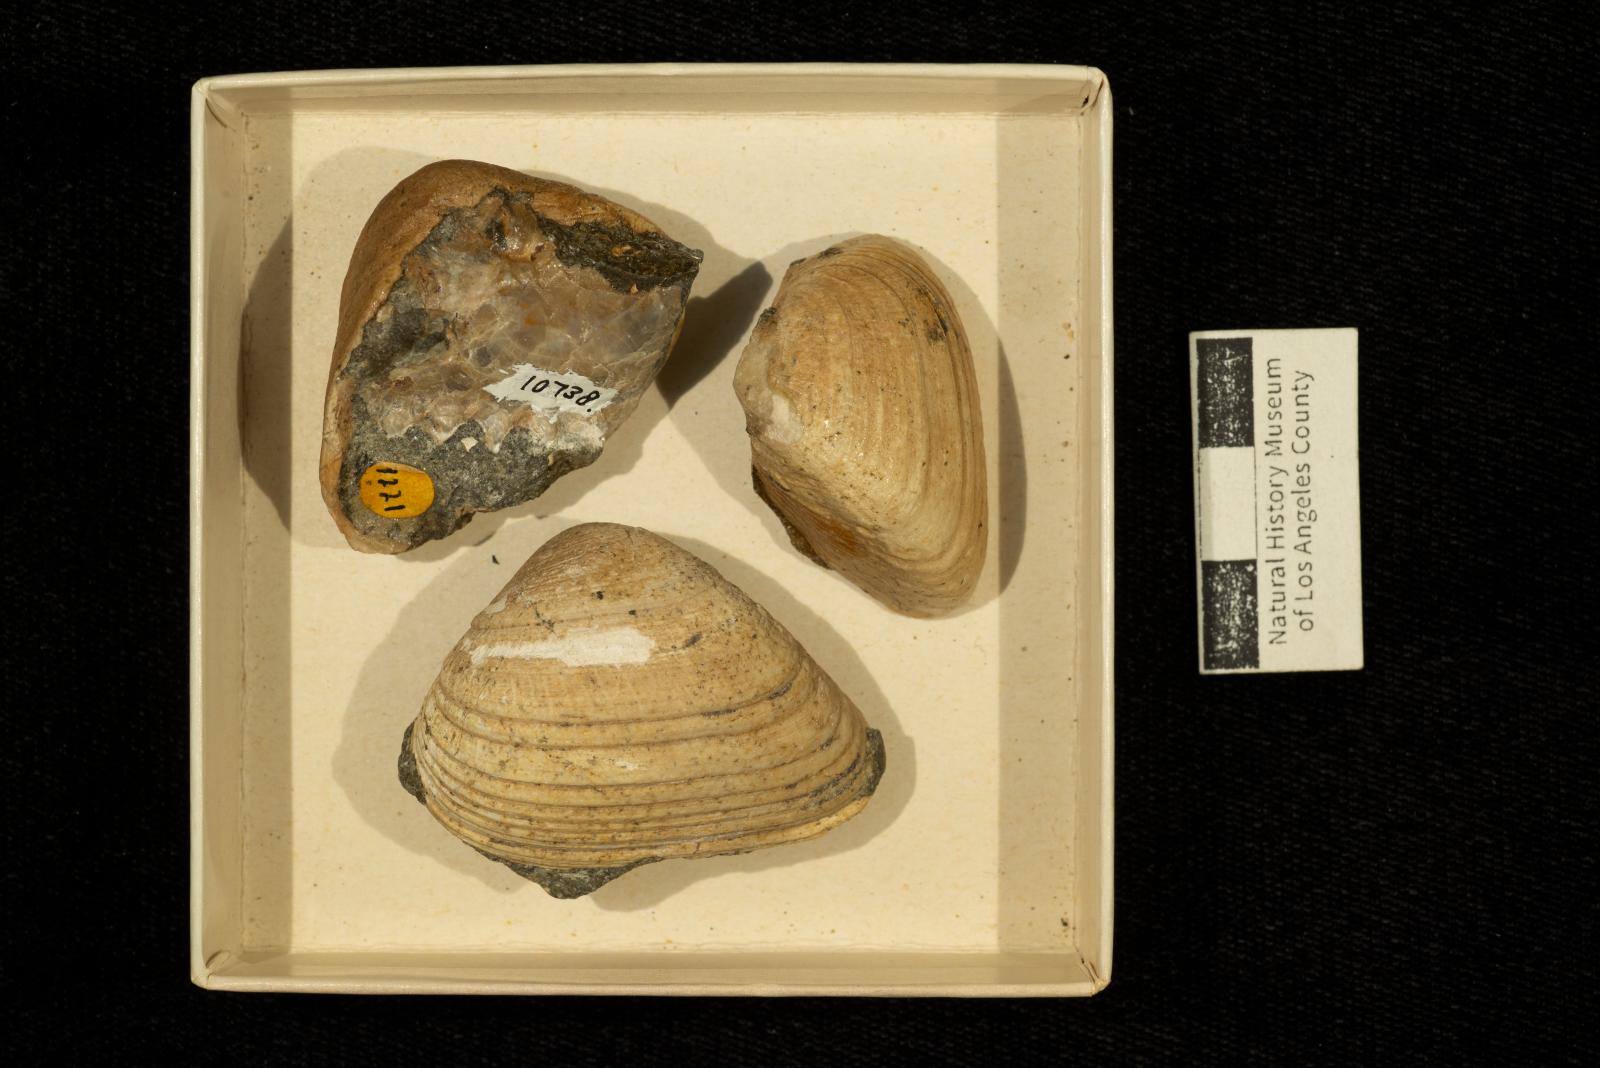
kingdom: Animalia
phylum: Mollusca
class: Bivalvia
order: Arcida
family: Cucullaeidae
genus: Idonearca
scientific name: Idonearca Arca gravida
